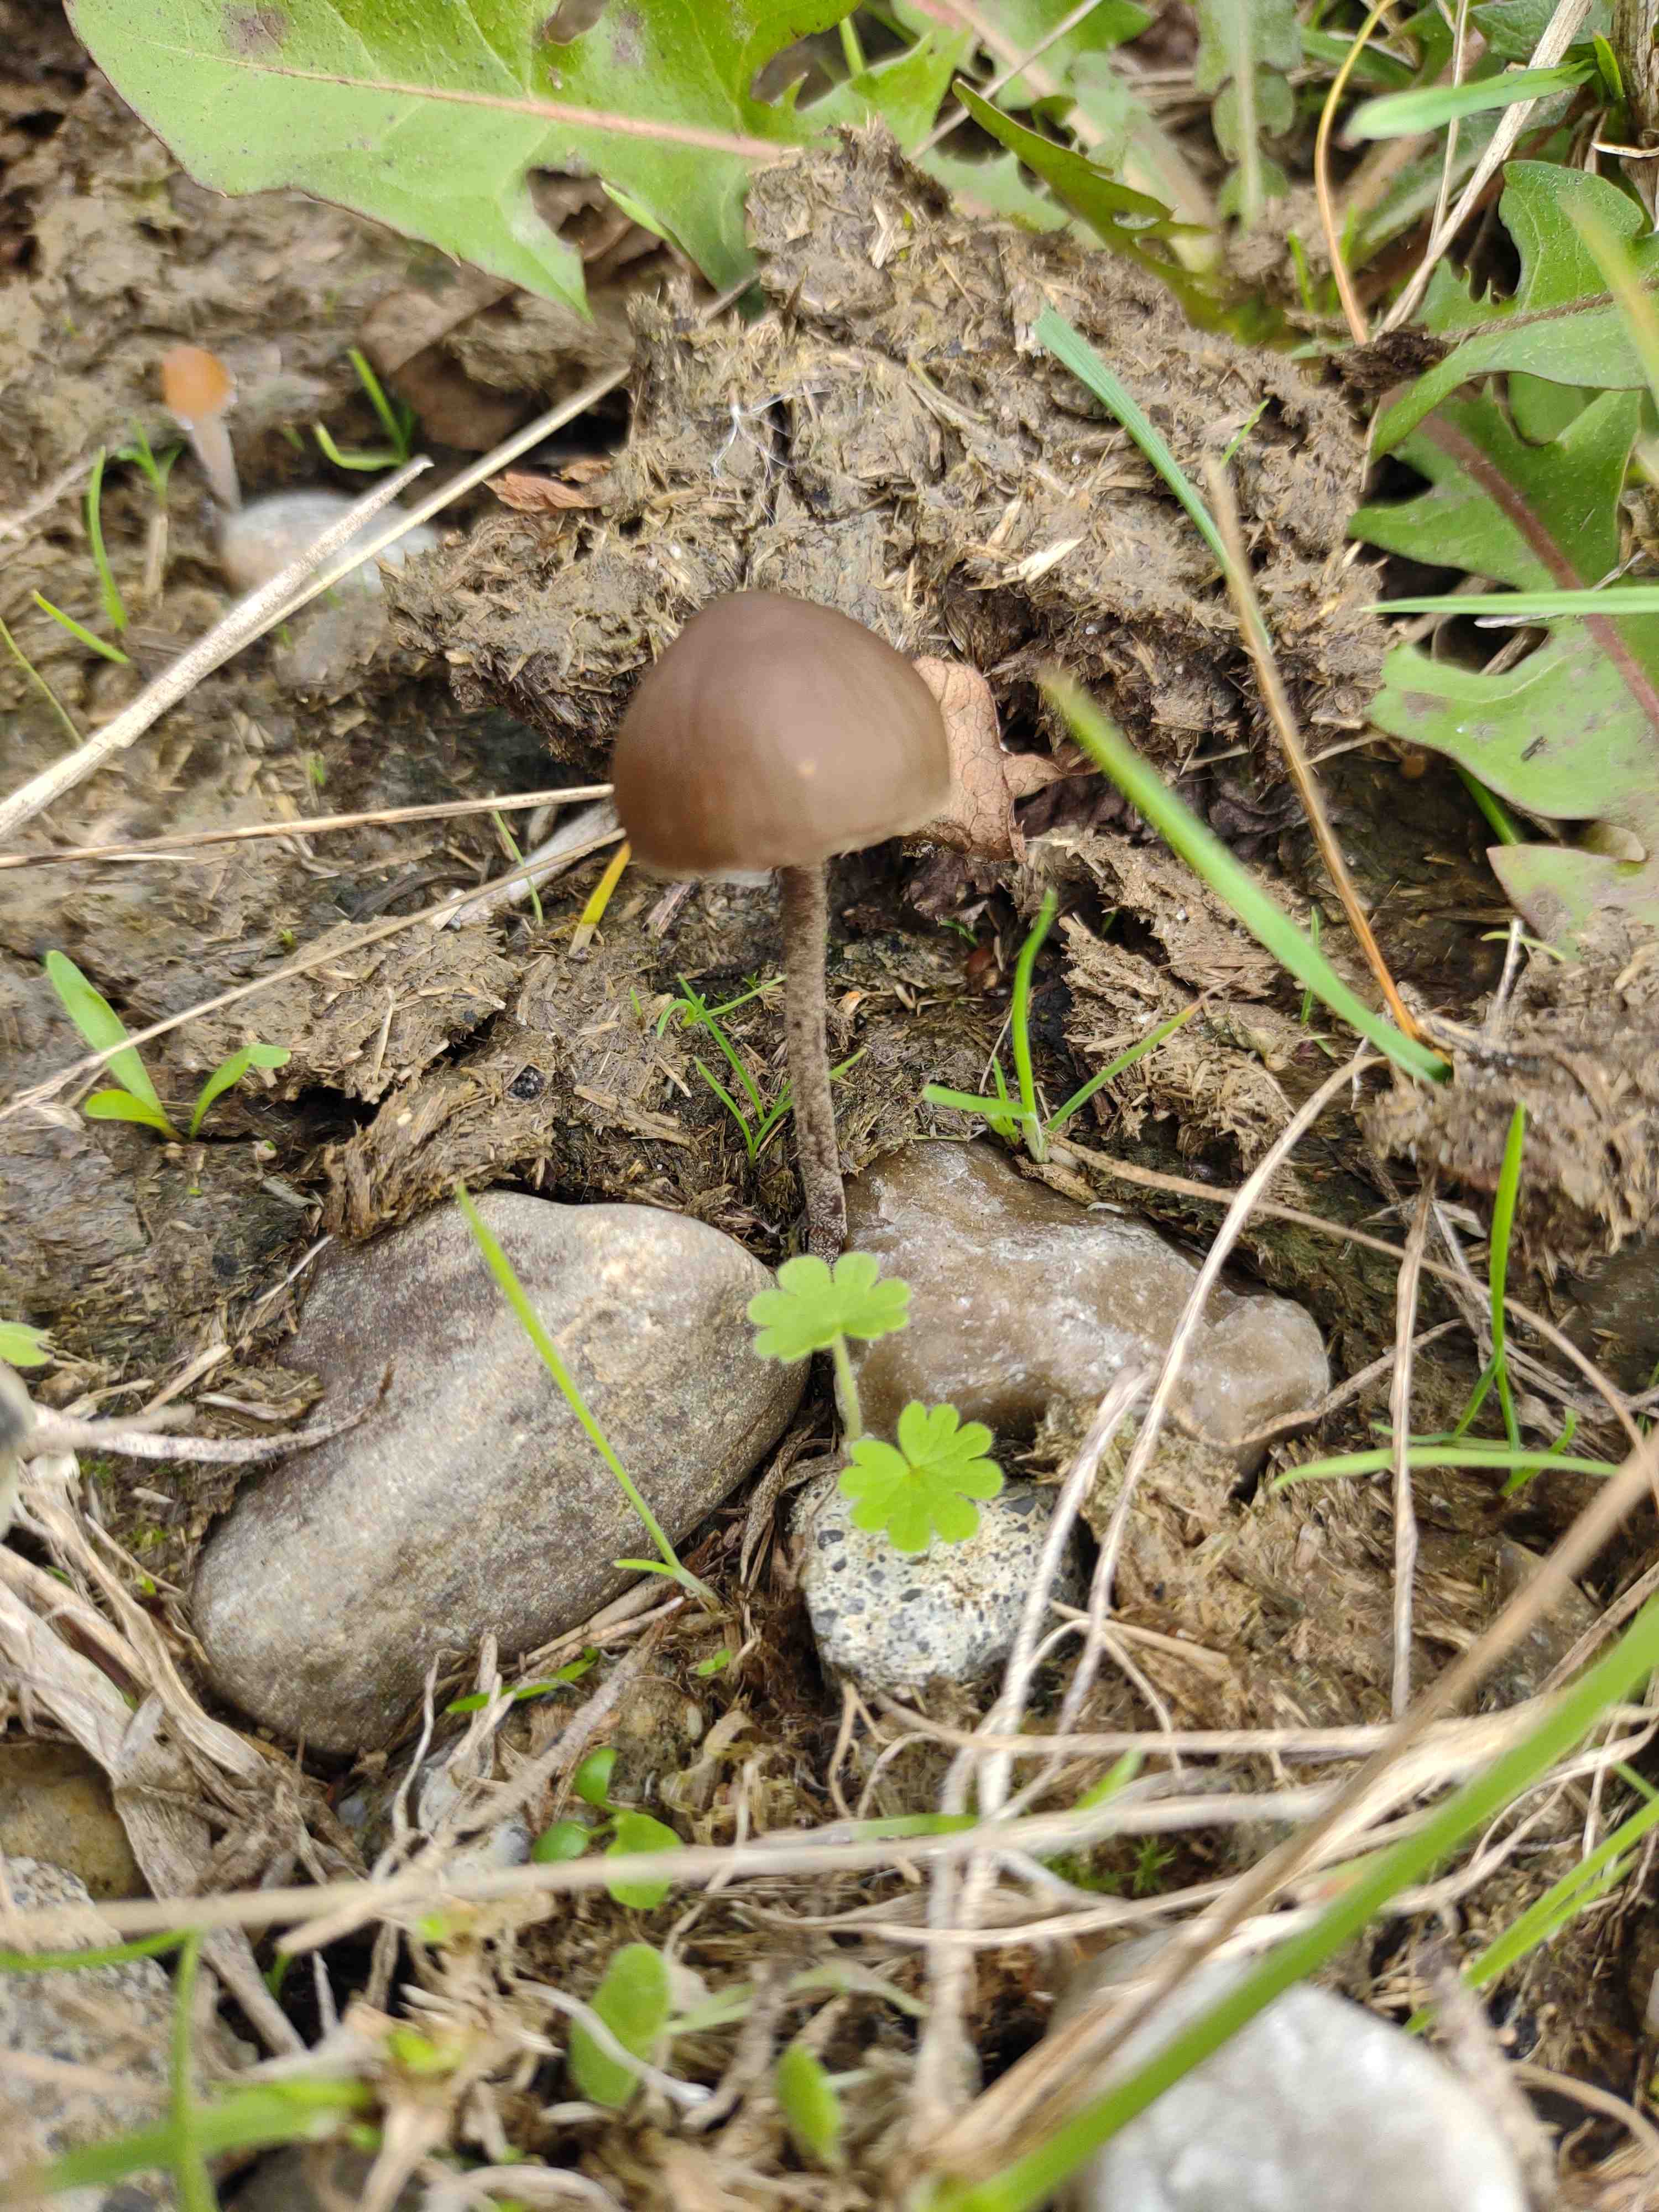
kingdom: Fungi
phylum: Basidiomycota
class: Agaricomycetes
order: Agaricales
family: Bolbitiaceae
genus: Panaeolus
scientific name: Panaeolus acuminatus
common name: høj glanshat
